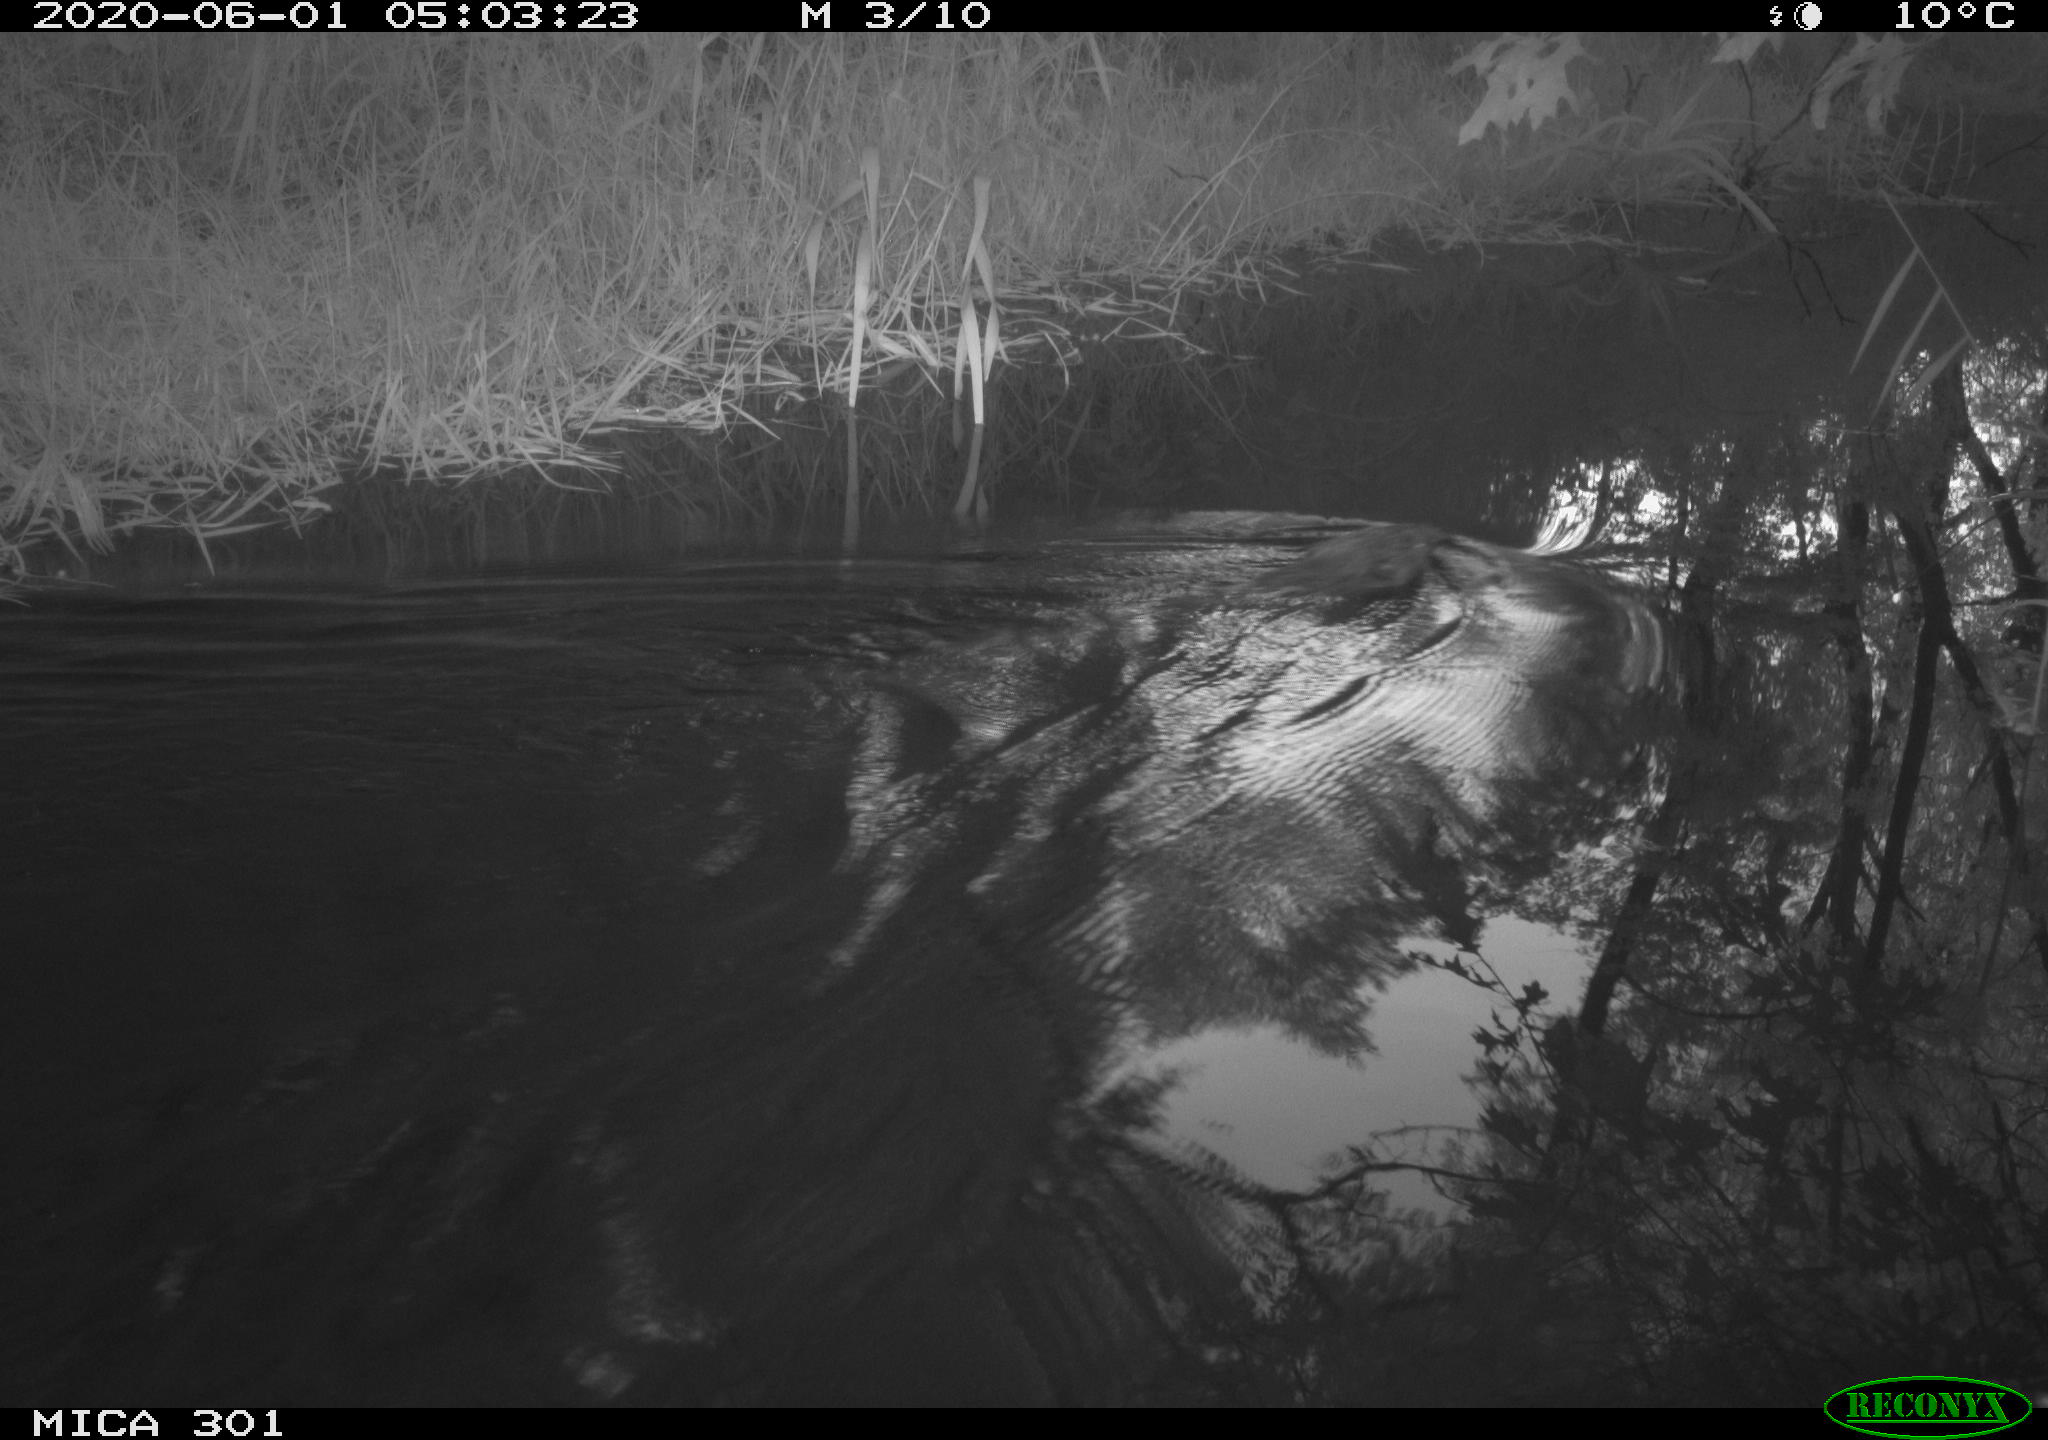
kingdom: Animalia
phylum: Chordata
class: Mammalia
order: Rodentia
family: Castoridae
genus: Castor
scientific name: Castor fiber
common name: Eurasian beaver
